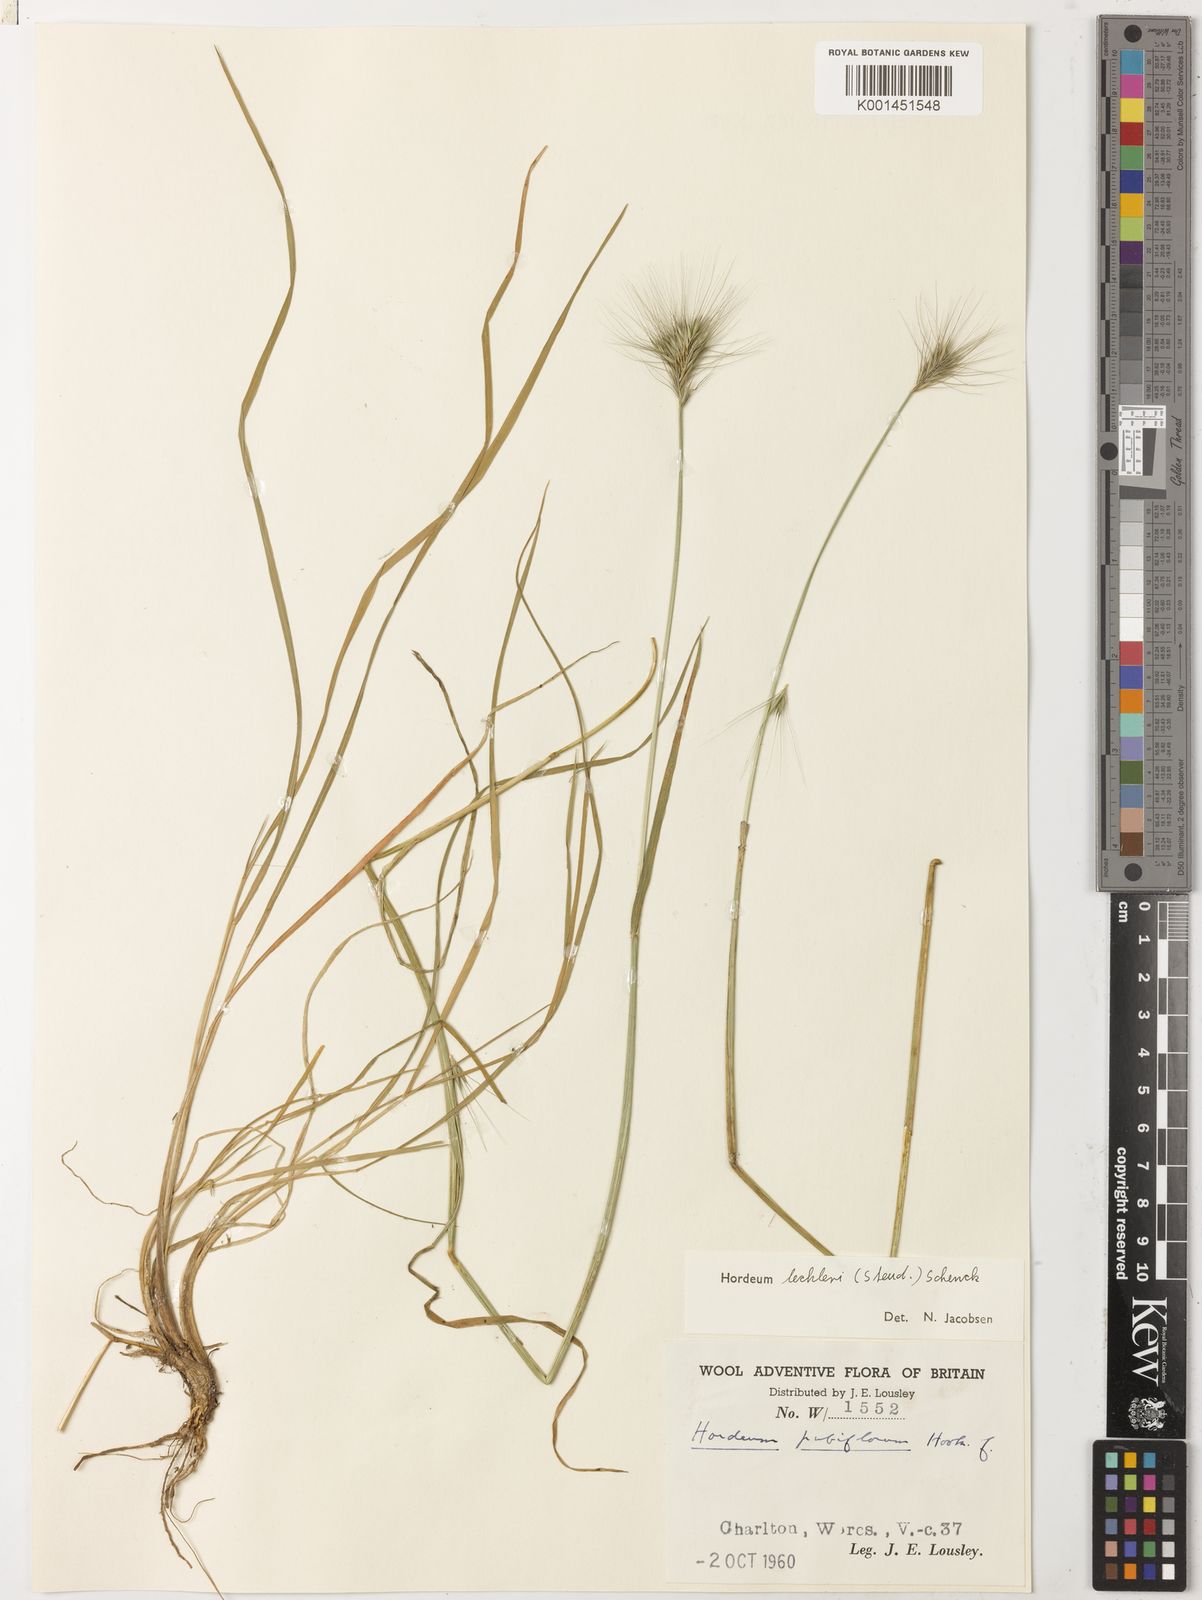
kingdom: Plantae
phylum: Tracheophyta
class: Liliopsida
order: Poales
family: Poaceae
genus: Hordeum
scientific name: Hordeum lechleri
